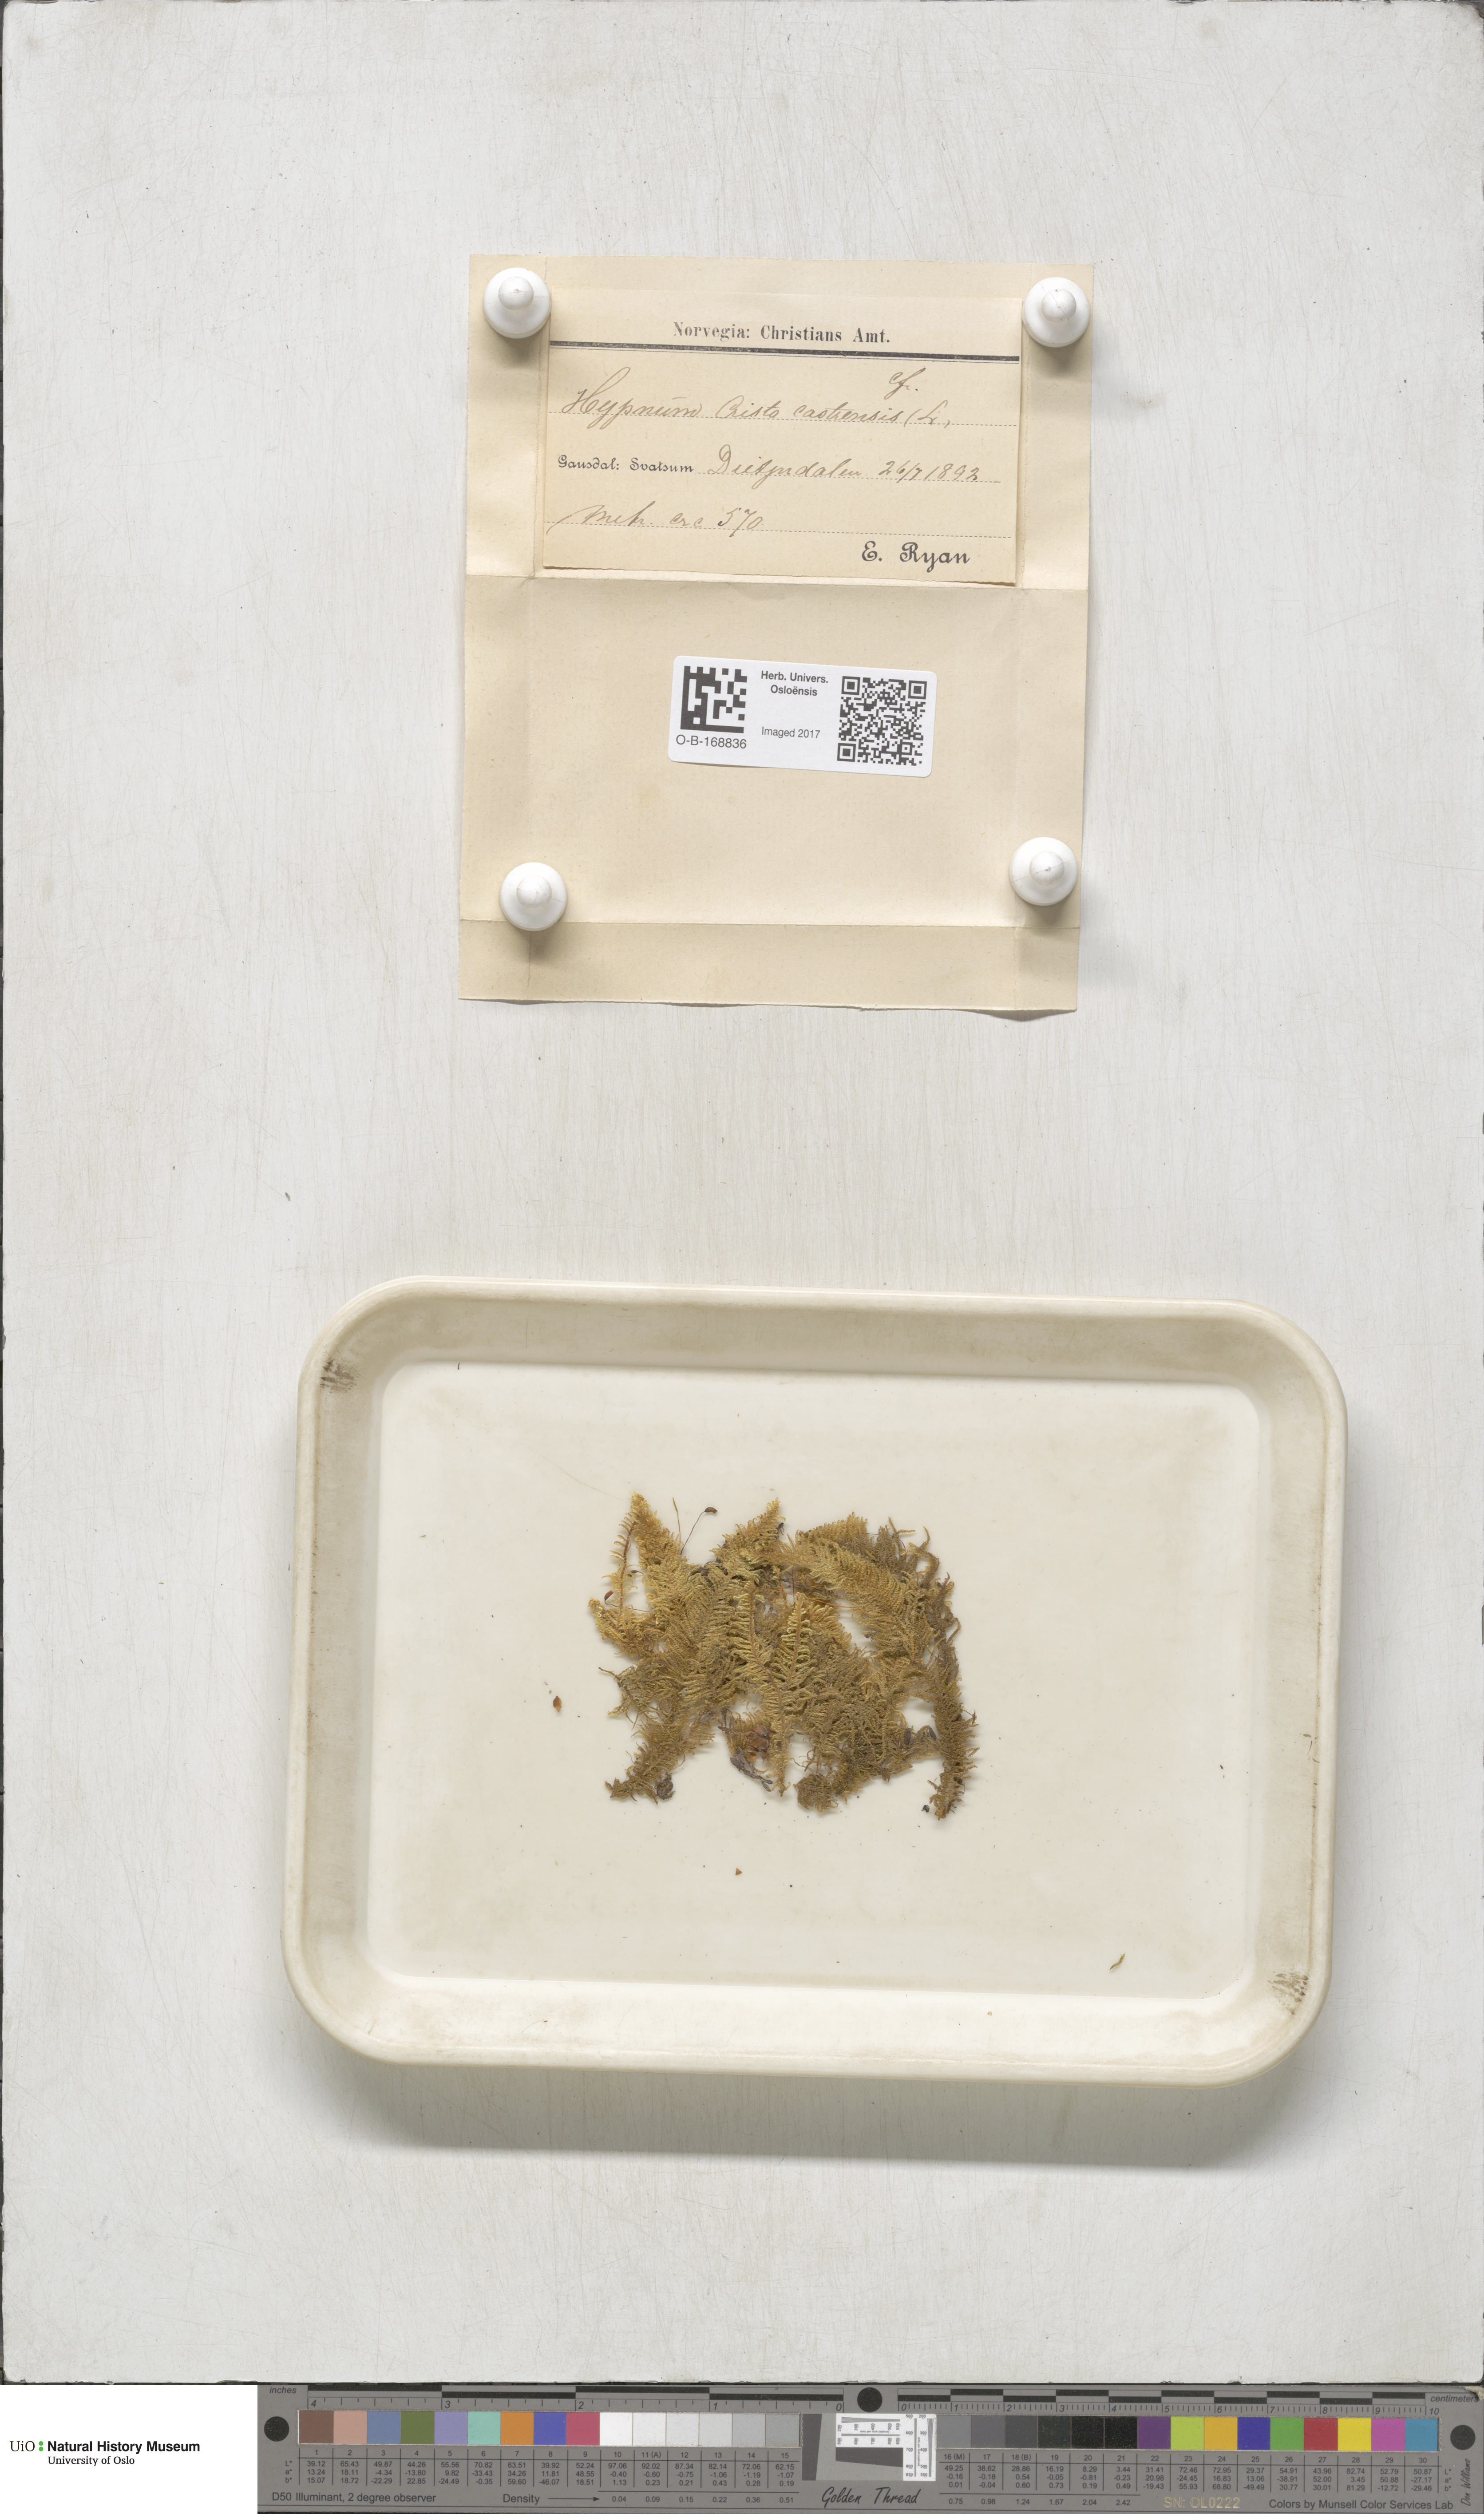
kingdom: Plantae
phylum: Bryophyta
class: Bryopsida
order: Hypnales
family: Pylaisiaceae
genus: Ptilium
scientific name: Ptilium crista-castrensis
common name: Knight's plume moss
